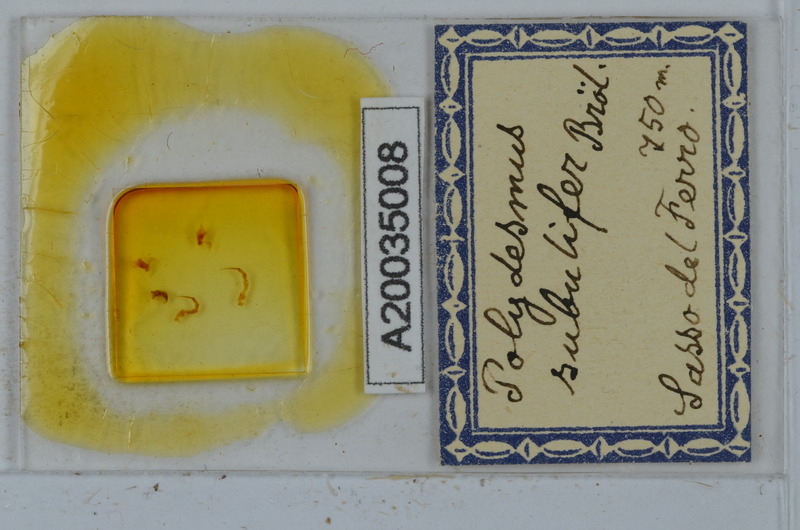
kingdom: Animalia
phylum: Arthropoda
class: Diplopoda
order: Polydesmida
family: Polydesmidae
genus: Polydesmus
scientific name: Polydesmus subulifer
